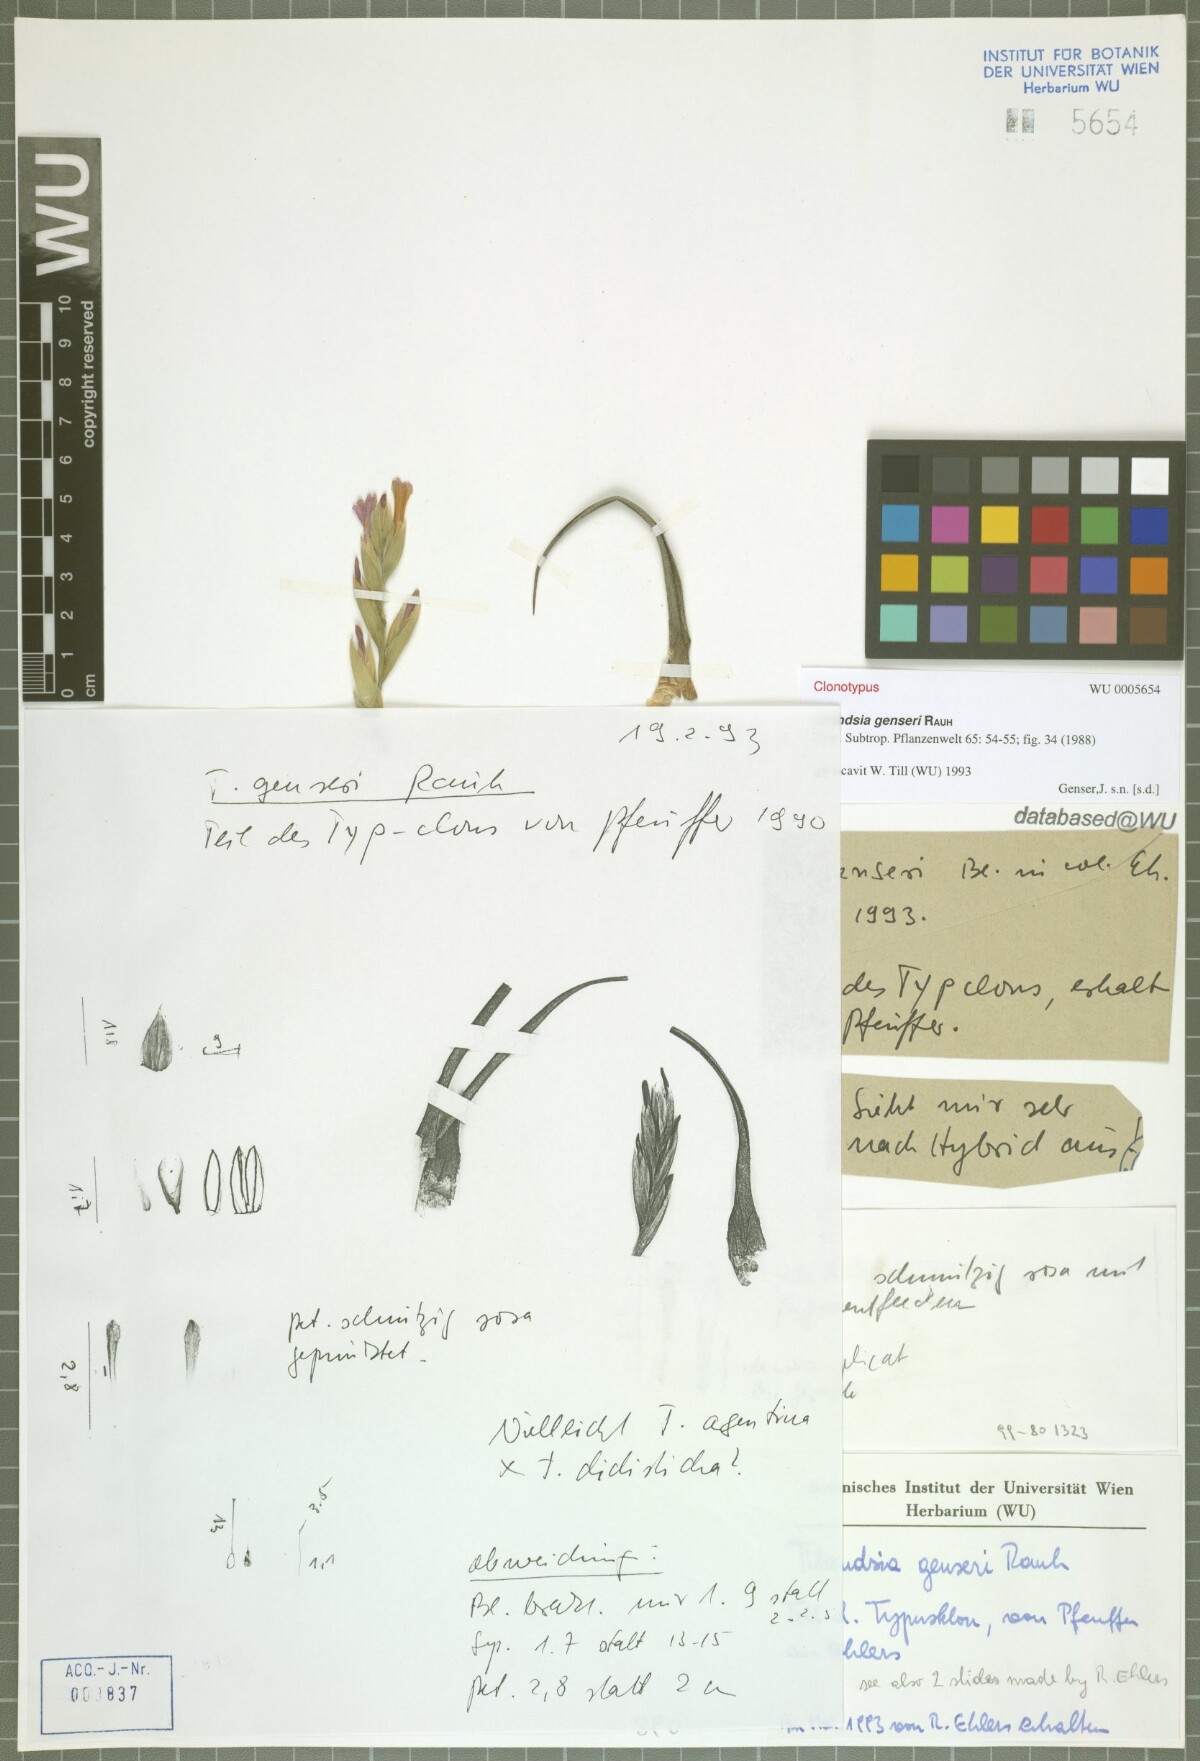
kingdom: Plantae
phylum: Tracheophyta
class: Liliopsida
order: Poales
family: Bromeliaceae
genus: Tillandsia
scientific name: Tillandsia genseri
